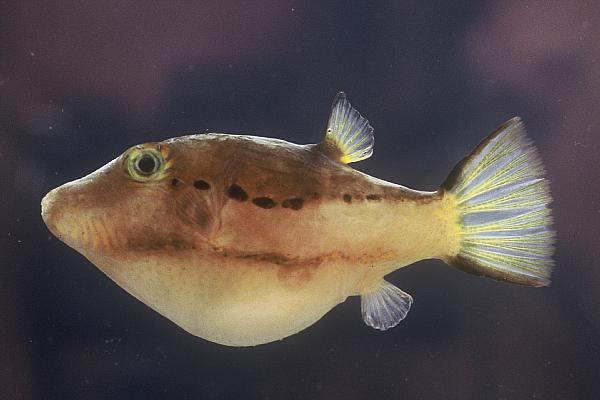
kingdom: Animalia
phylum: Chordata
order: Tetraodontiformes
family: Tetraodontidae
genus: Canthigaster
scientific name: Canthigaster smithae
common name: Bicolored toby
